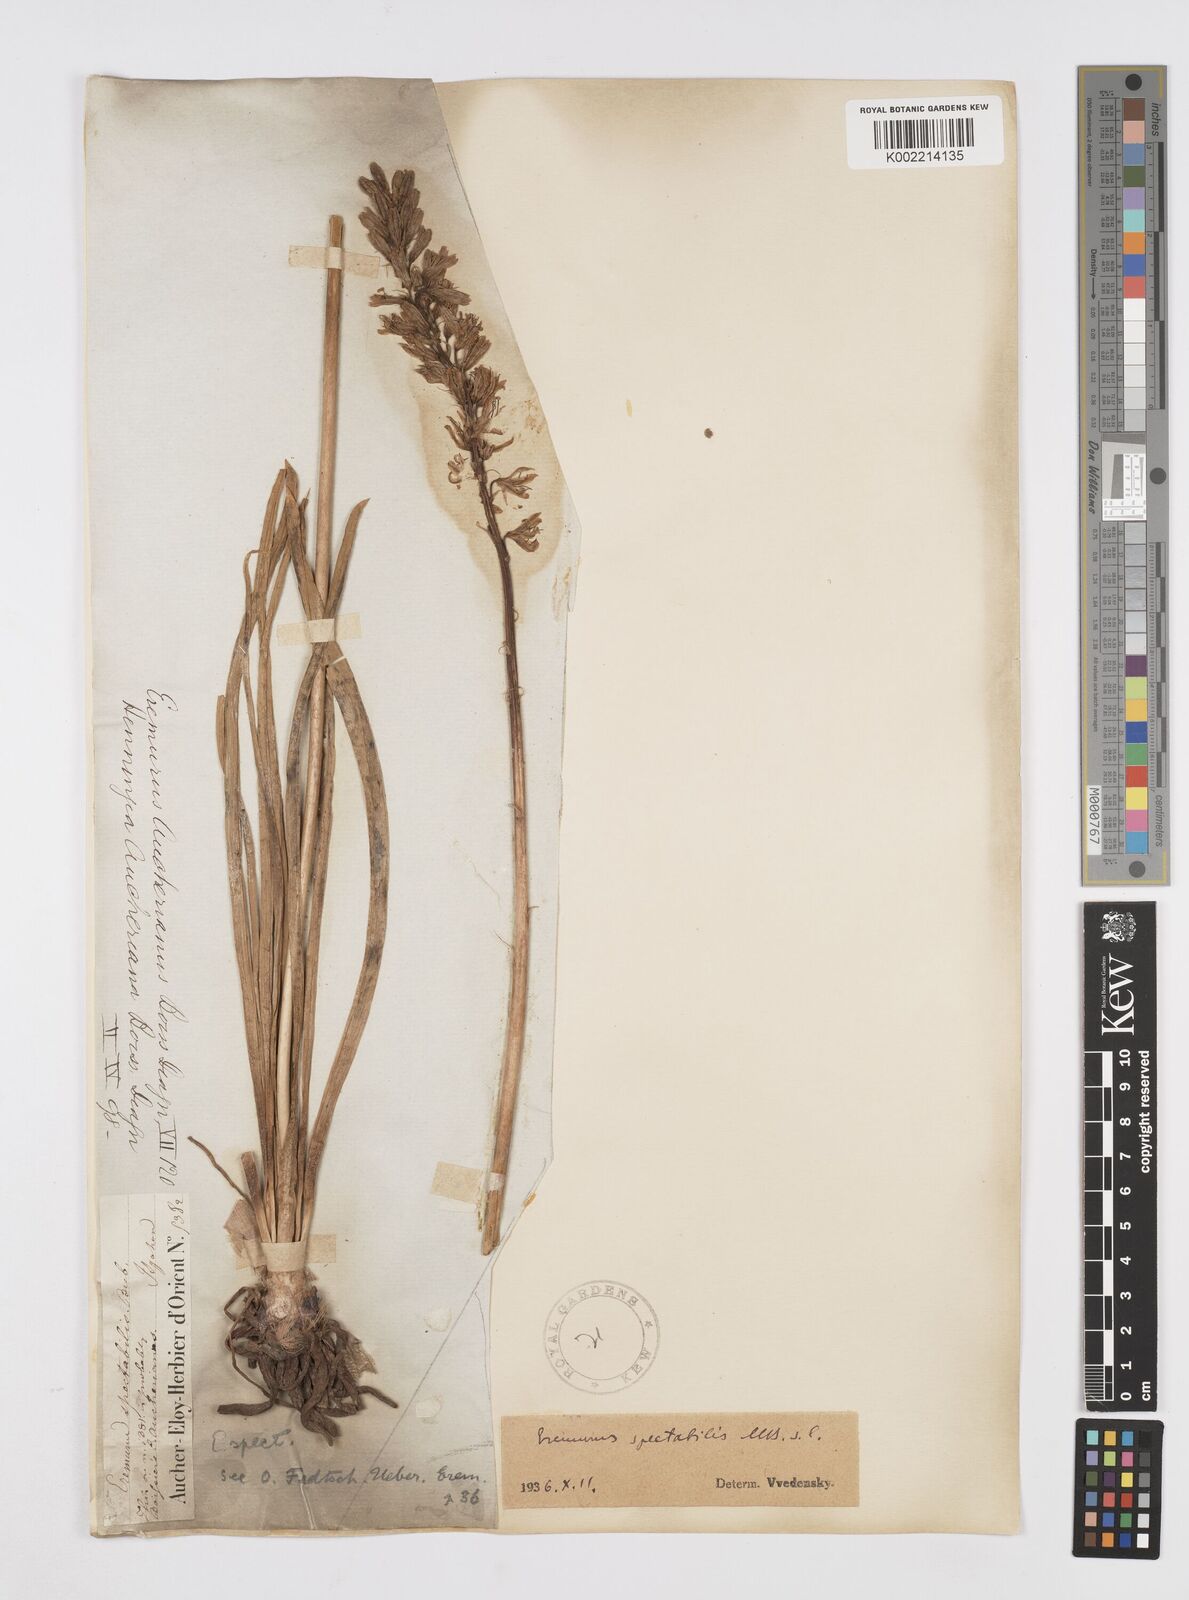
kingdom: Plantae
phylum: Tracheophyta
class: Liliopsida
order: Asparagales
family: Asphodelaceae
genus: Eremurus
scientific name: Eremurus spectabilis
